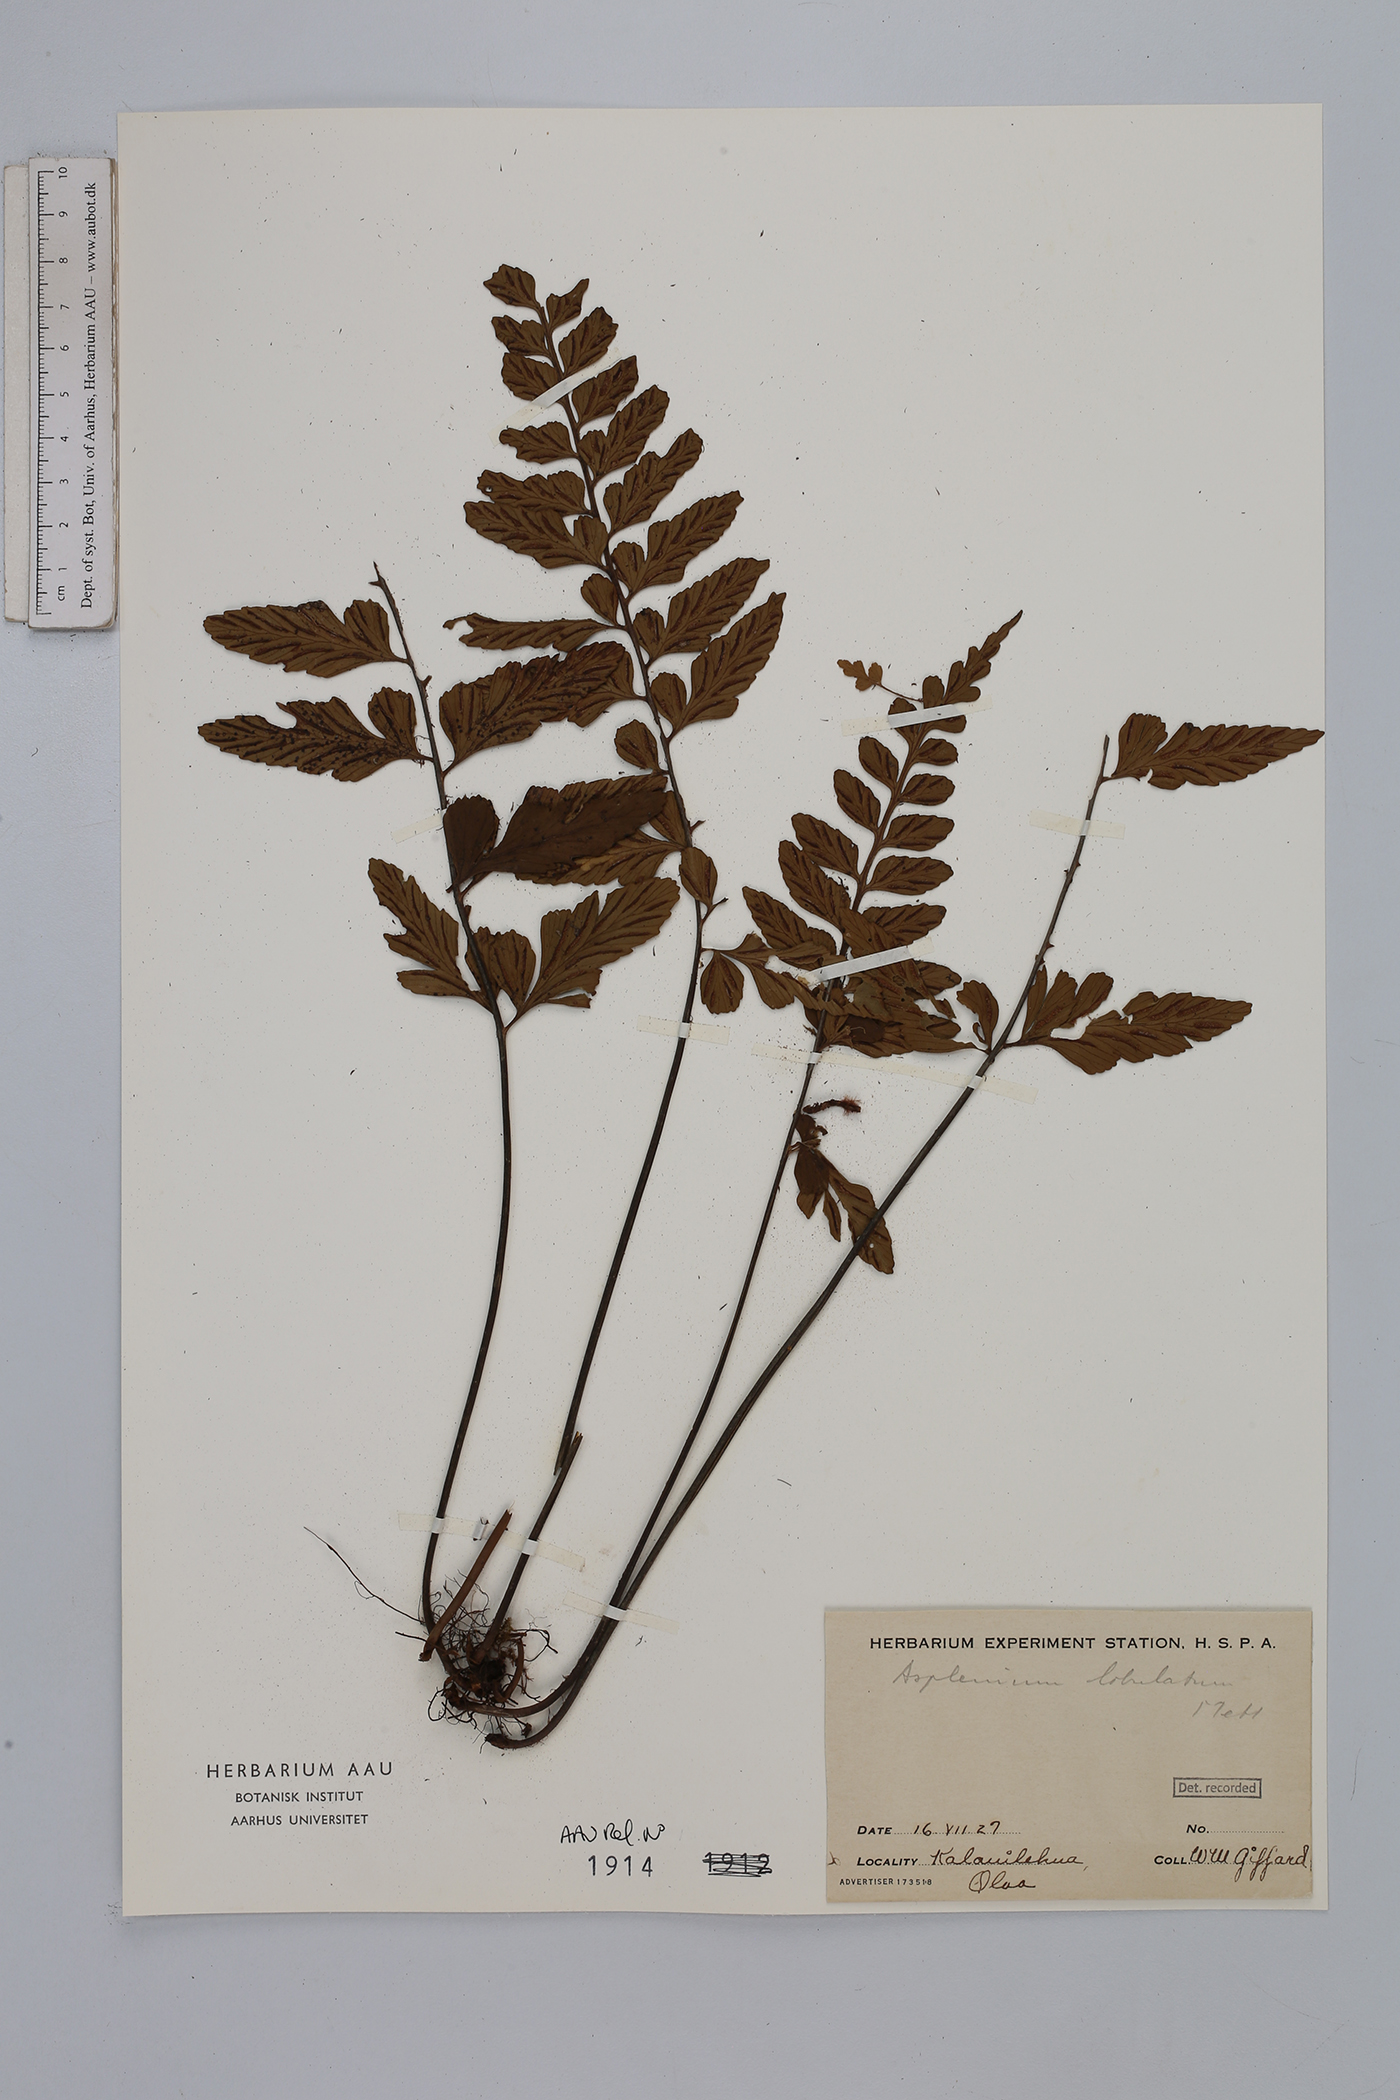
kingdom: Plantae
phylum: Tracheophyta
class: Polypodiopsida
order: Polypodiales
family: Aspleniaceae
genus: Asplenium
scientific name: Asplenium lobatum
